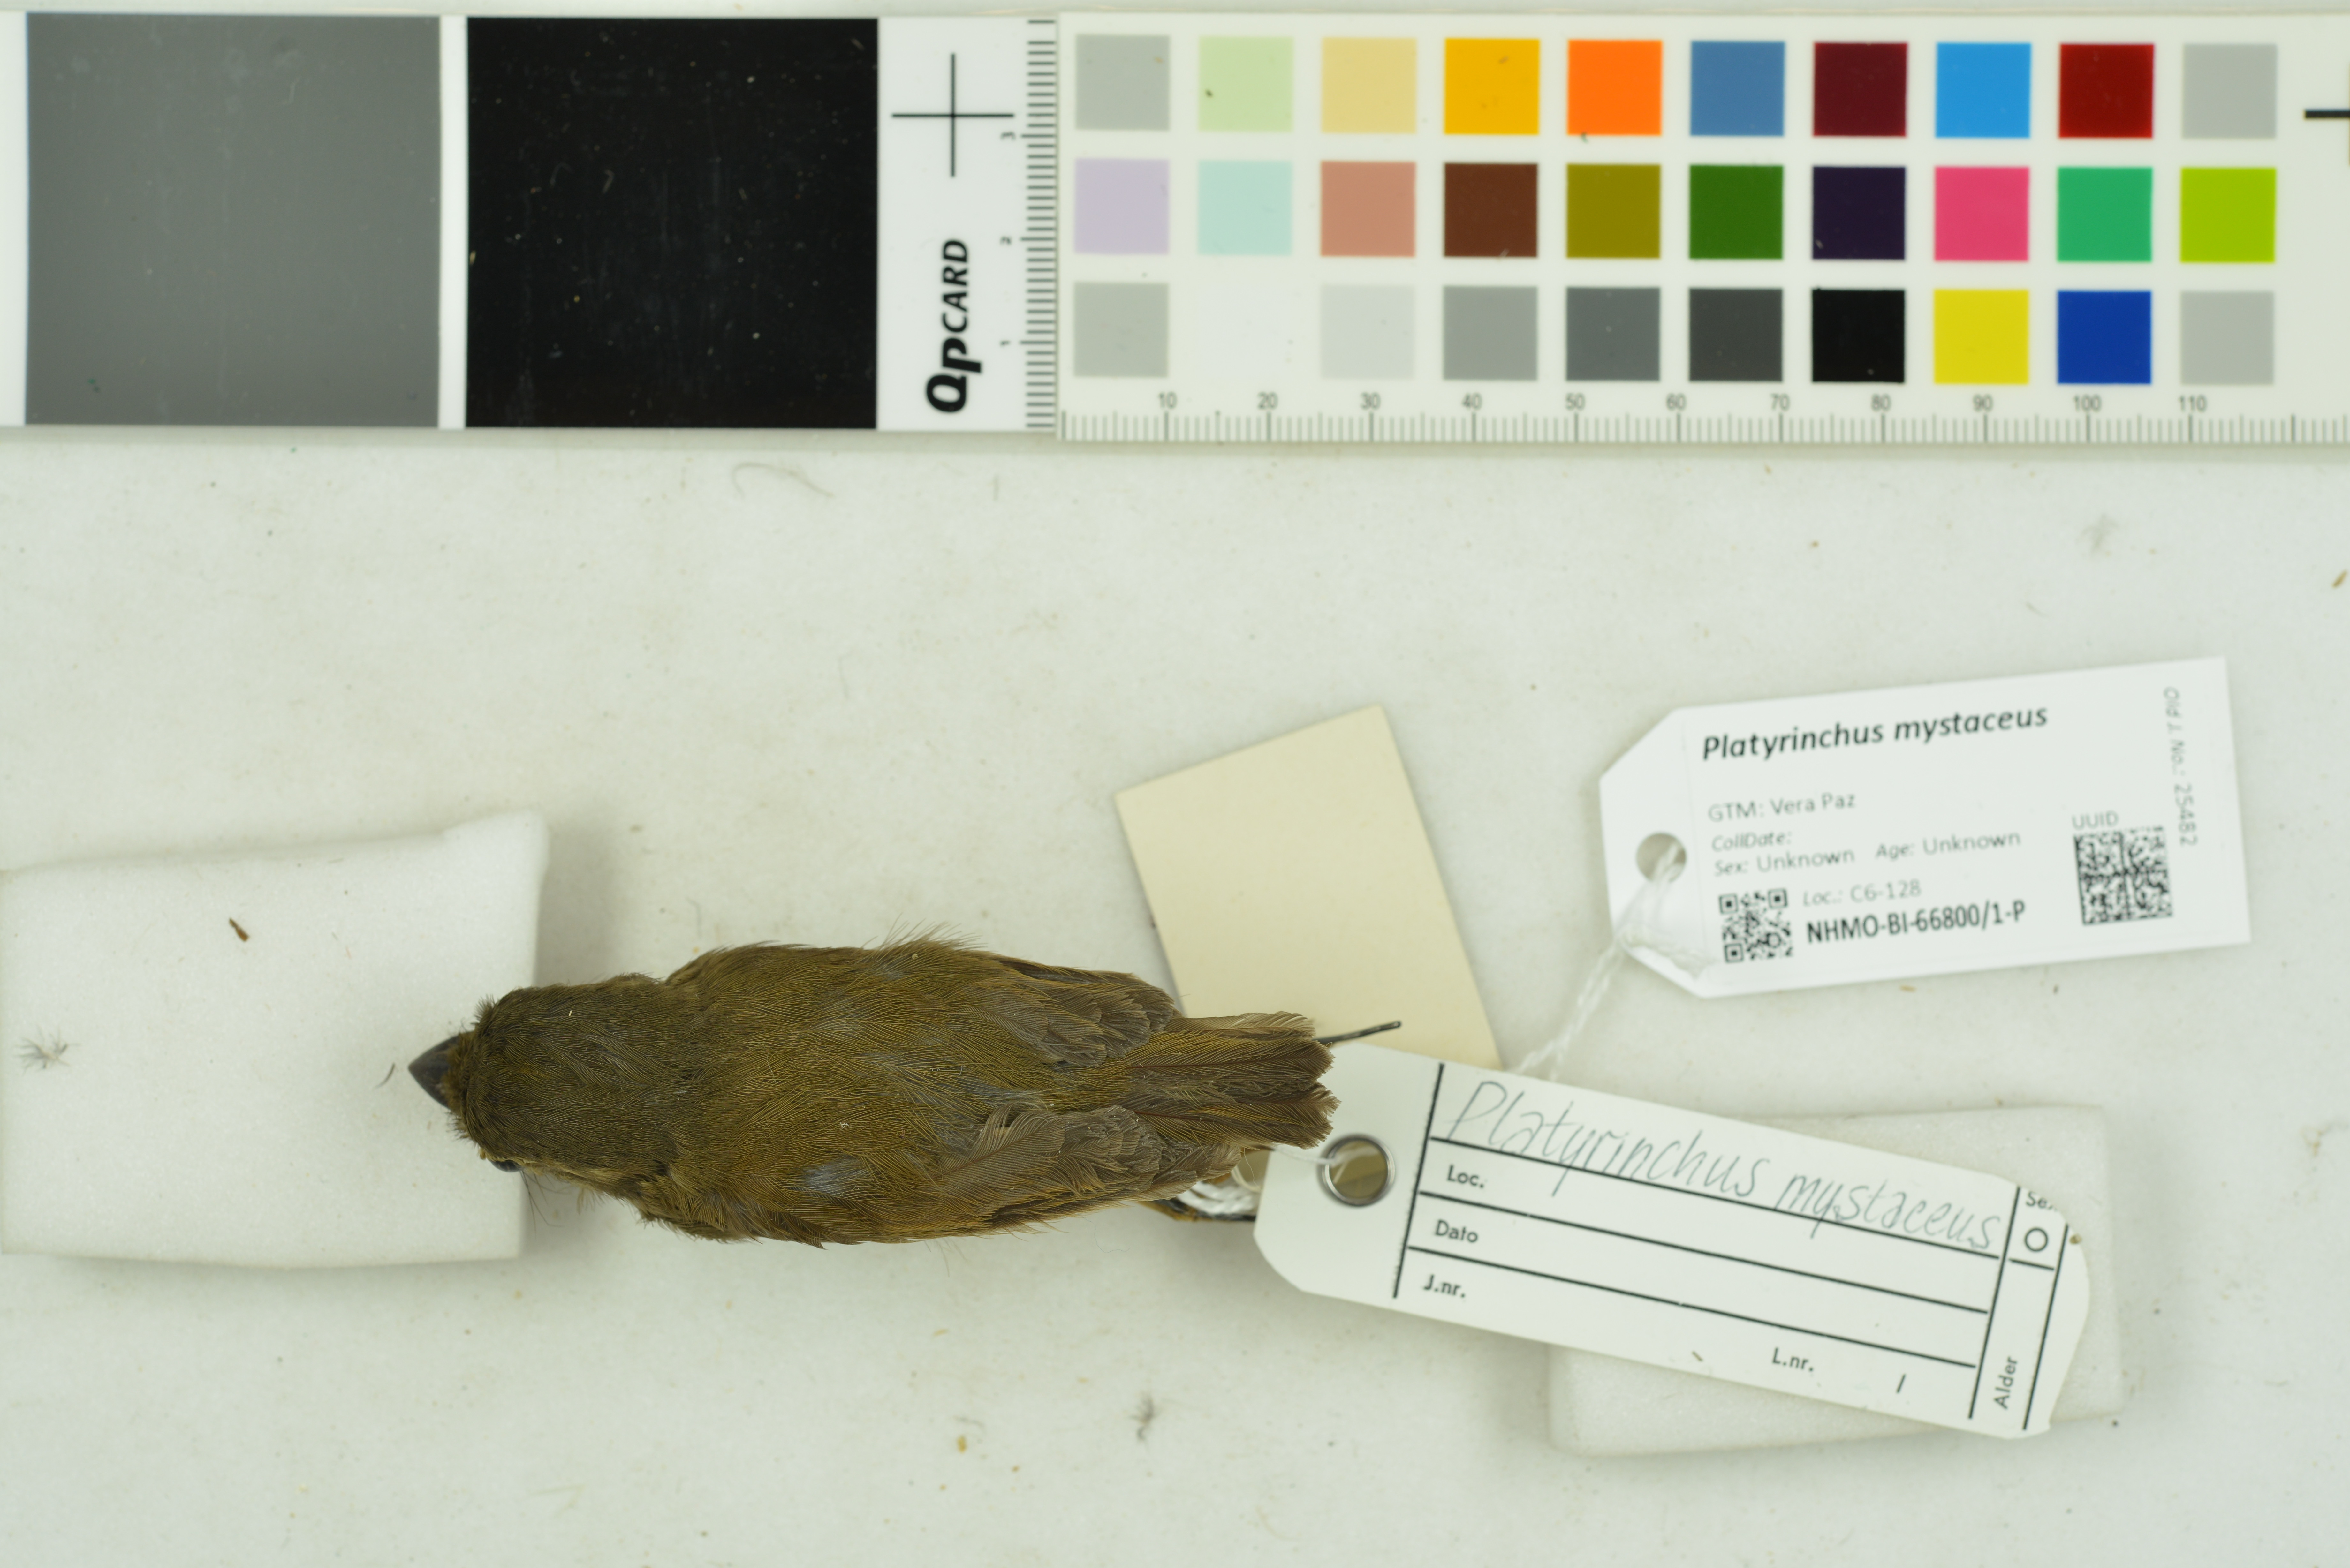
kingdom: Animalia
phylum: Chordata
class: Aves
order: Passeriformes
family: Tyrannidae
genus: Platyrinchus
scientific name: Platyrinchus mystaceus
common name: White-throated spadebill
